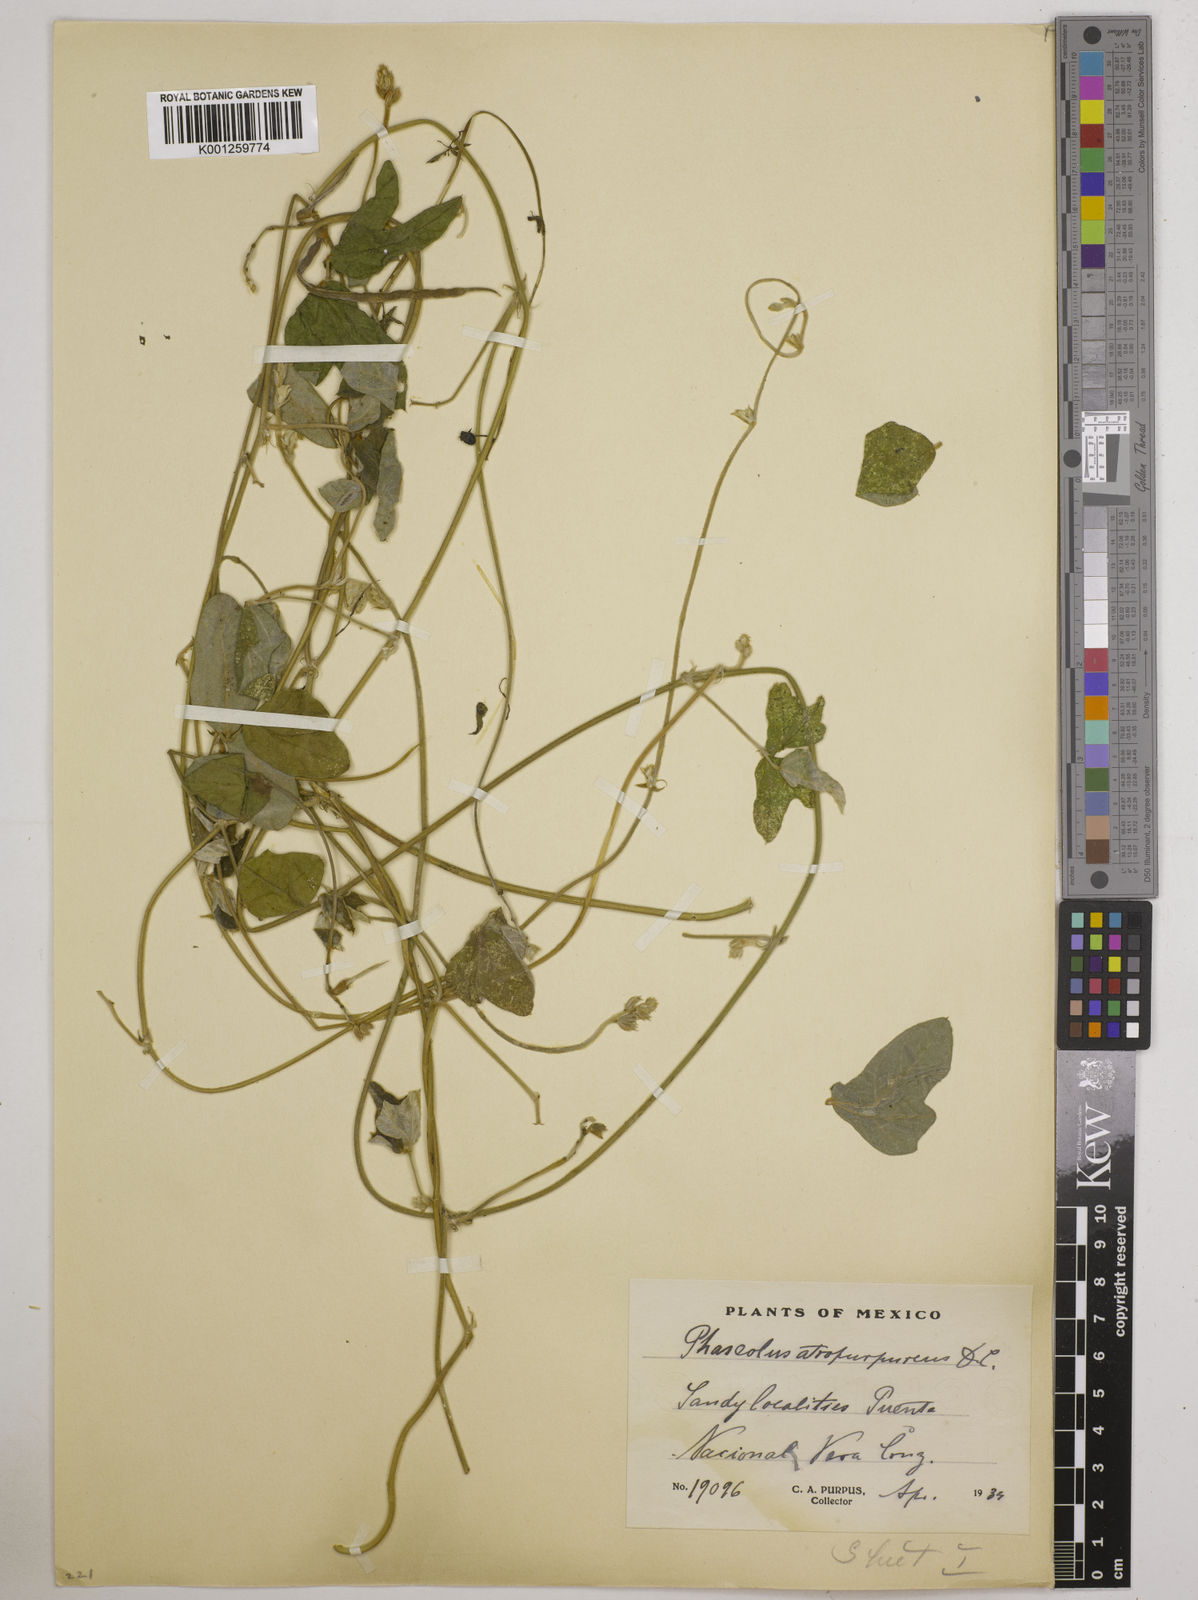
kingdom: Plantae
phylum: Tracheophyta
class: Magnoliopsida
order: Fabales
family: Fabaceae
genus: Macroptilium
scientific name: Macroptilium atropurpureum
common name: Purple bushbean
